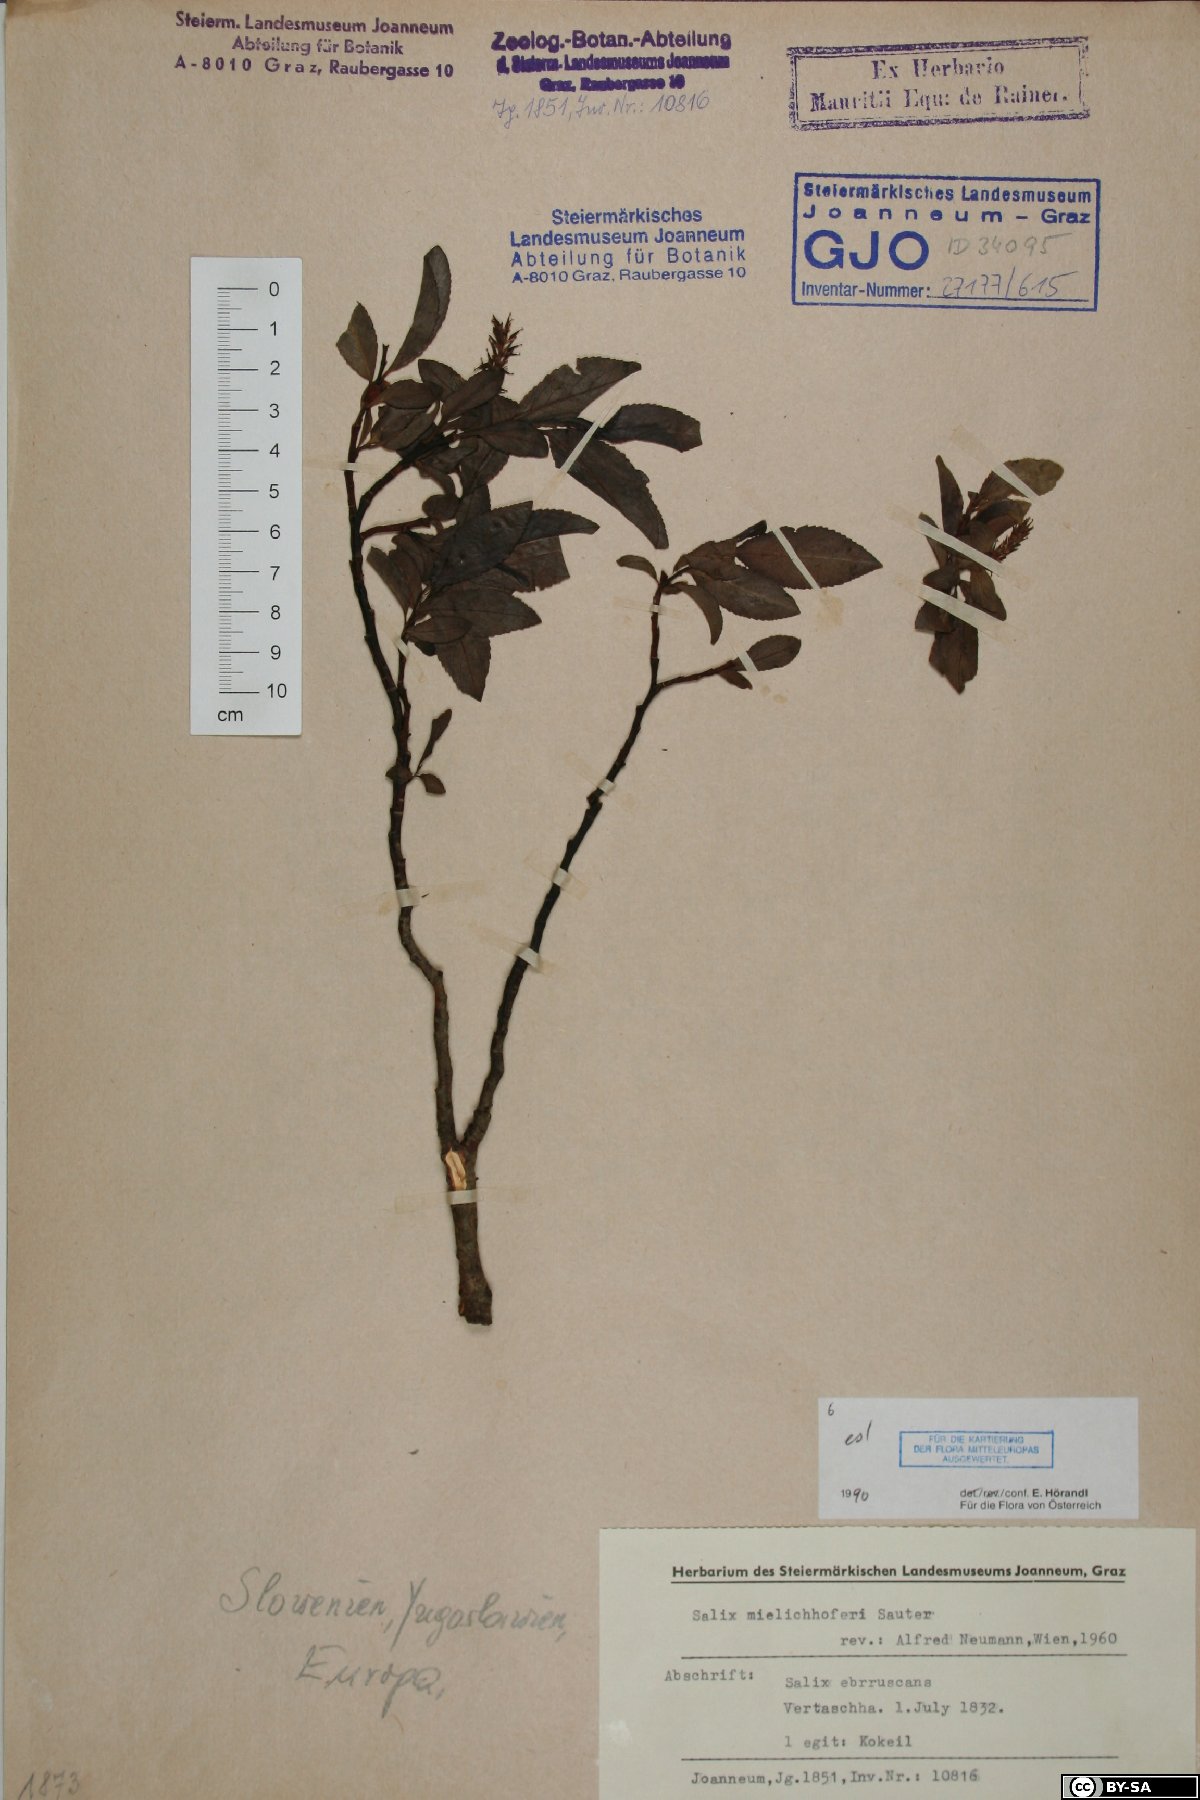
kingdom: Plantae
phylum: Tracheophyta
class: Magnoliopsida
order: Malpighiales
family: Salicaceae
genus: Salix
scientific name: Salix mielichhoferi
